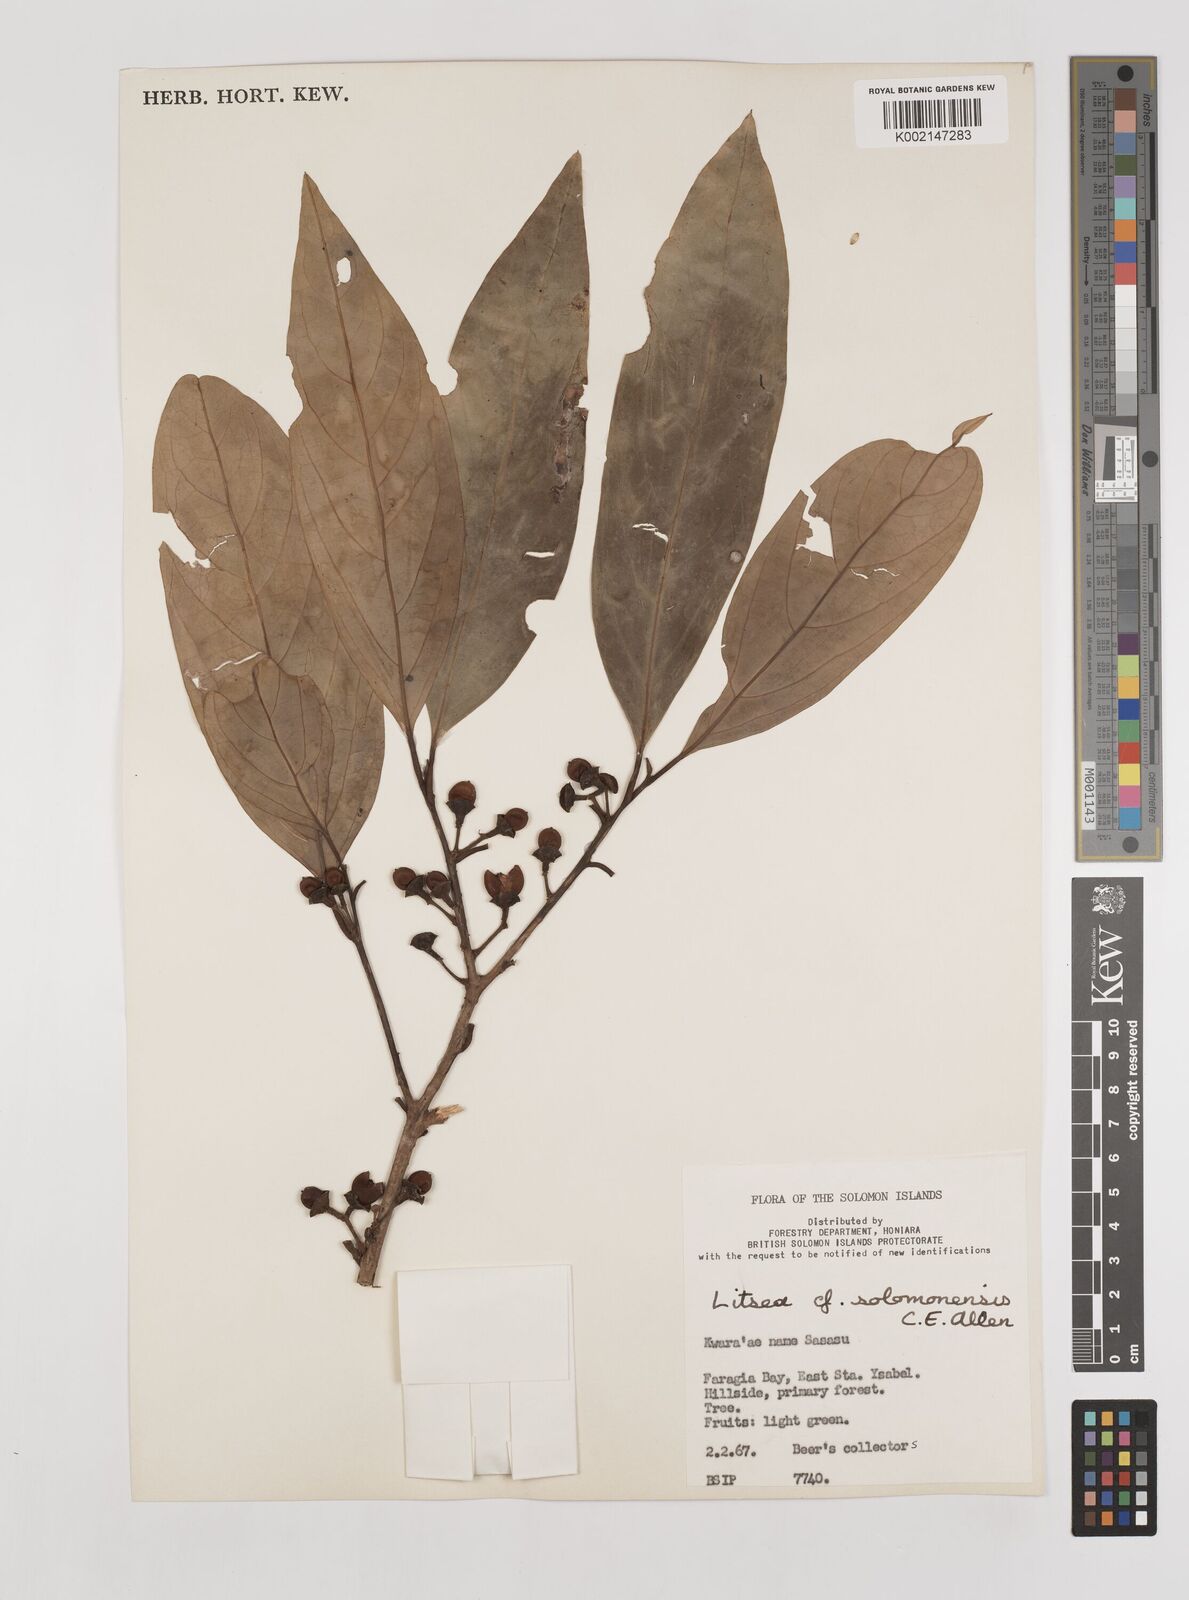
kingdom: Plantae
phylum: Tracheophyta
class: Magnoliopsida
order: Laurales
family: Lauraceae
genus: Litsea
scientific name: Litsea timoriana
